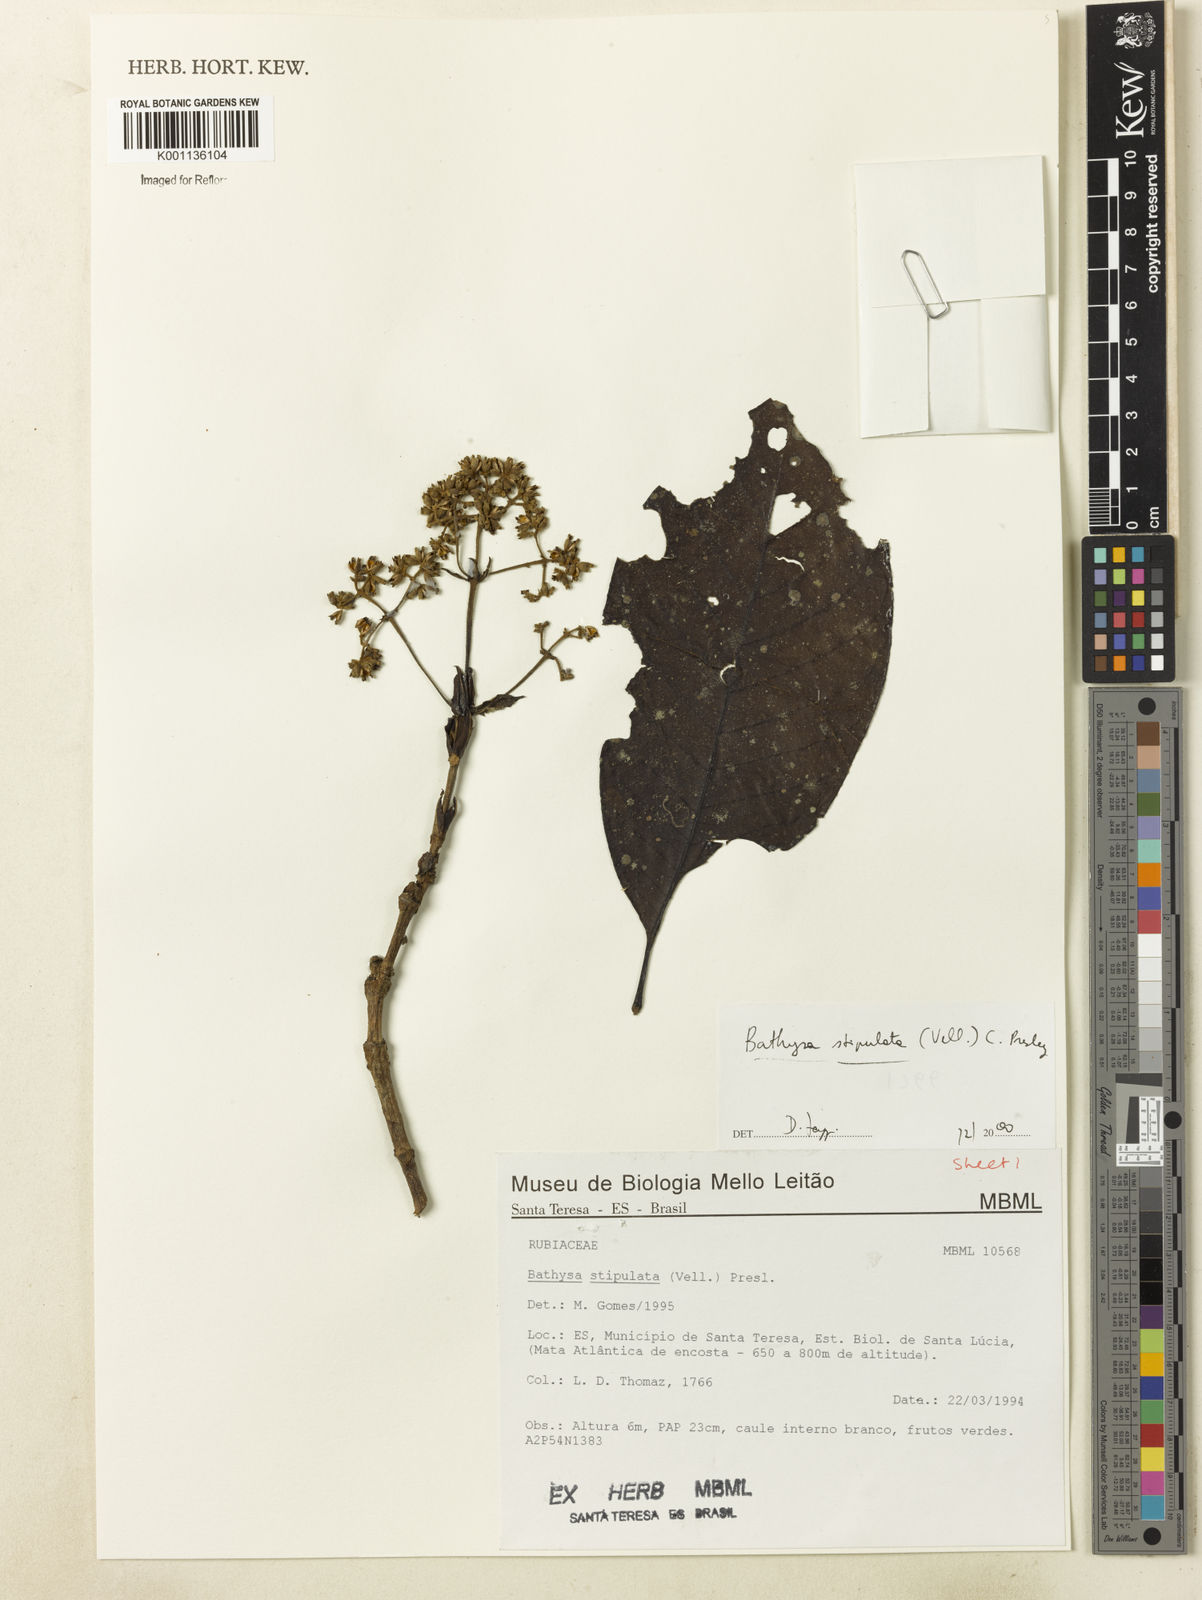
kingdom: Plantae
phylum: Tracheophyta
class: Magnoliopsida
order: Gentianales
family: Rubiaceae
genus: Bathysa
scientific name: Bathysa stipulata
